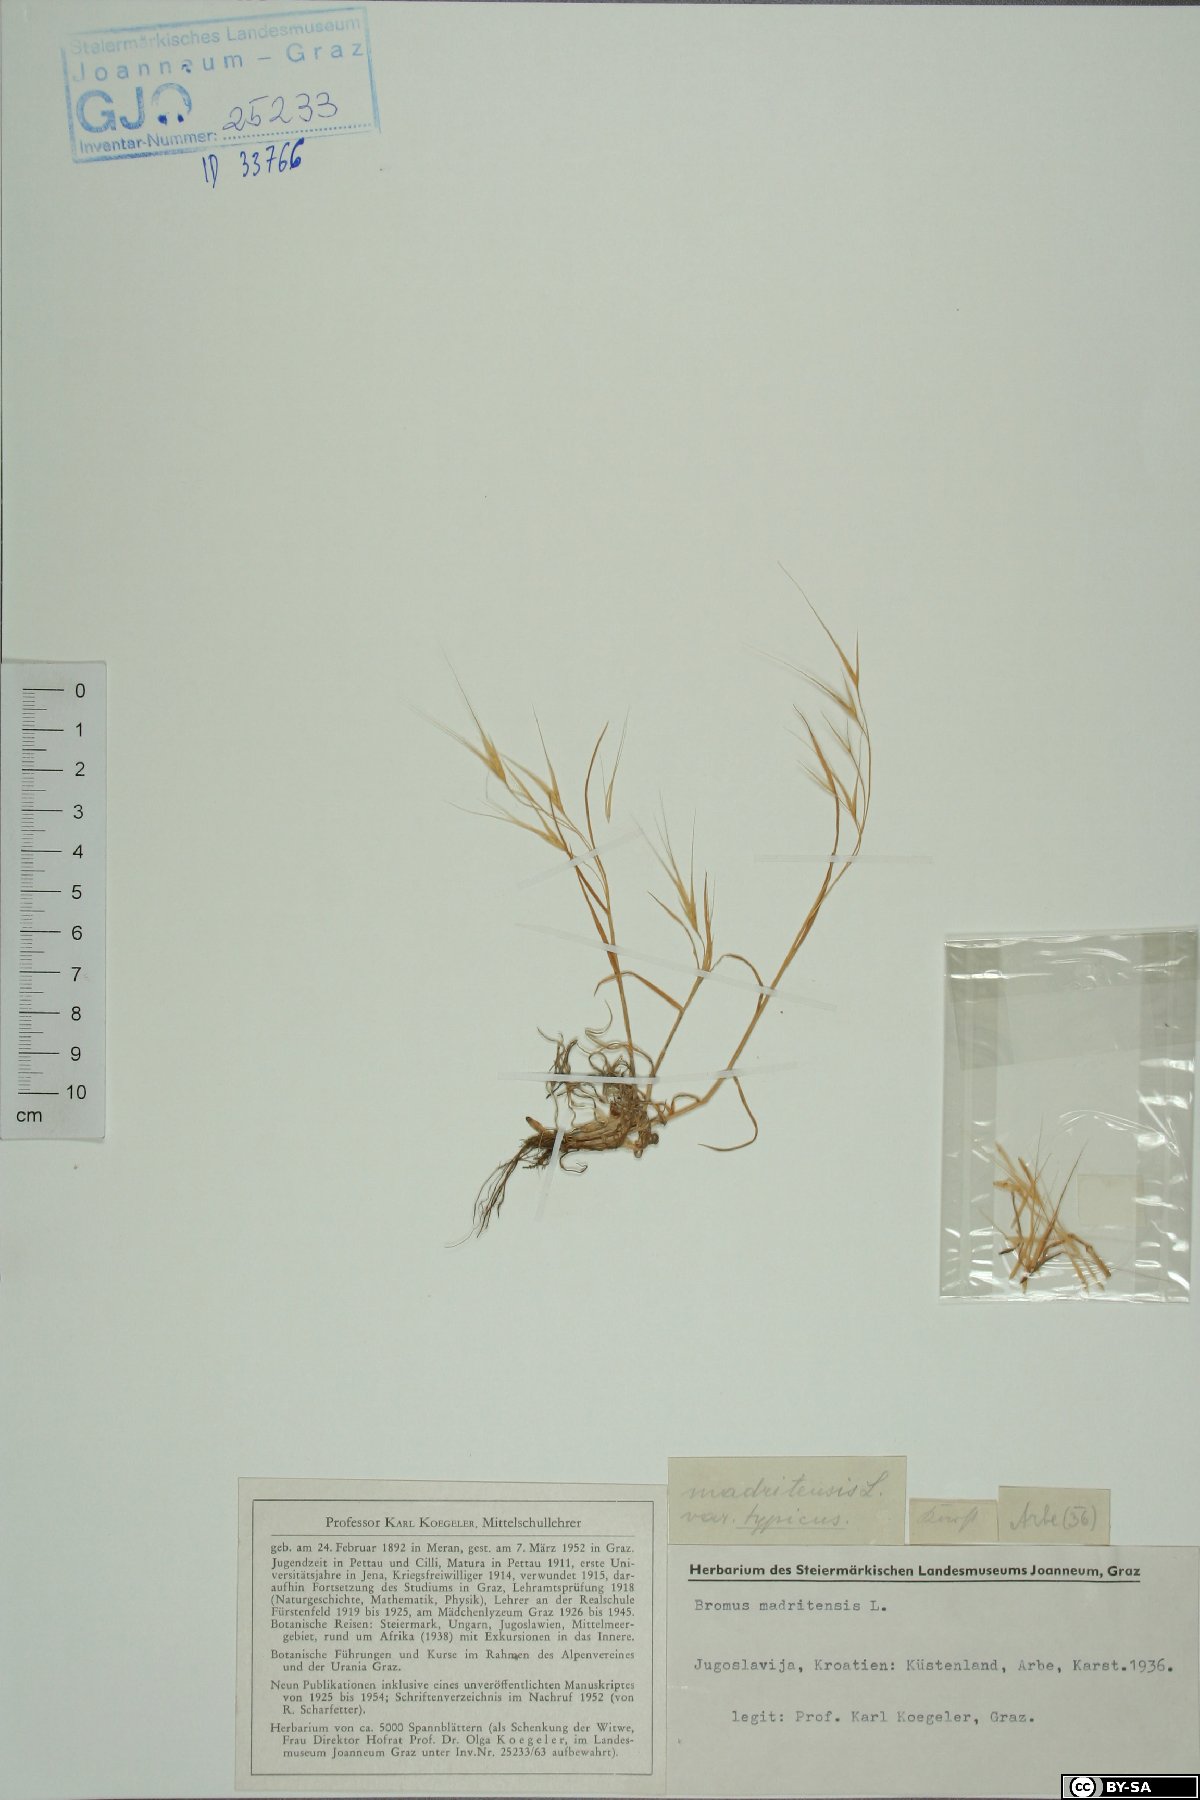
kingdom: Plantae
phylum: Tracheophyta
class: Liliopsida
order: Poales
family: Poaceae
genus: Bromus
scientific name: Bromus madritensis
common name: Compact brome
